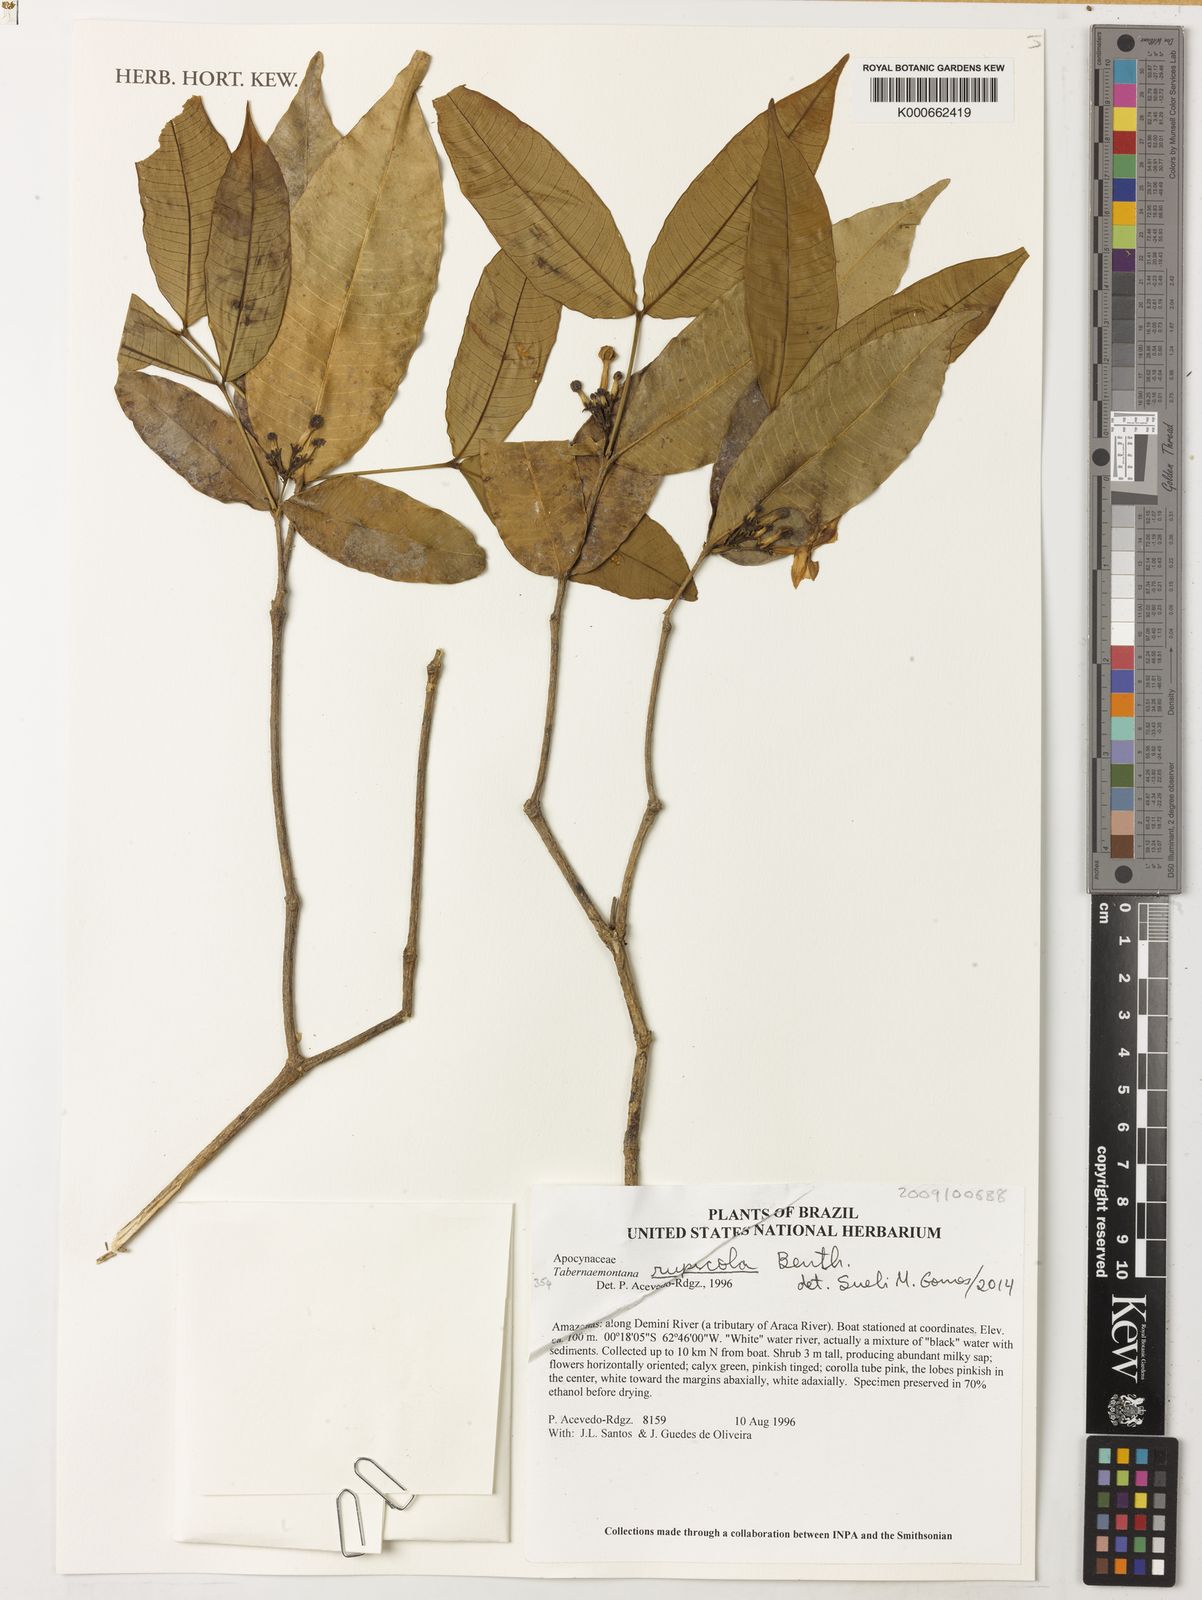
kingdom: Plantae
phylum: Tracheophyta
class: Magnoliopsida
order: Gentianales
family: Apocynaceae
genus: Tabernaemontana
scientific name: Tabernaemontana rupicola
